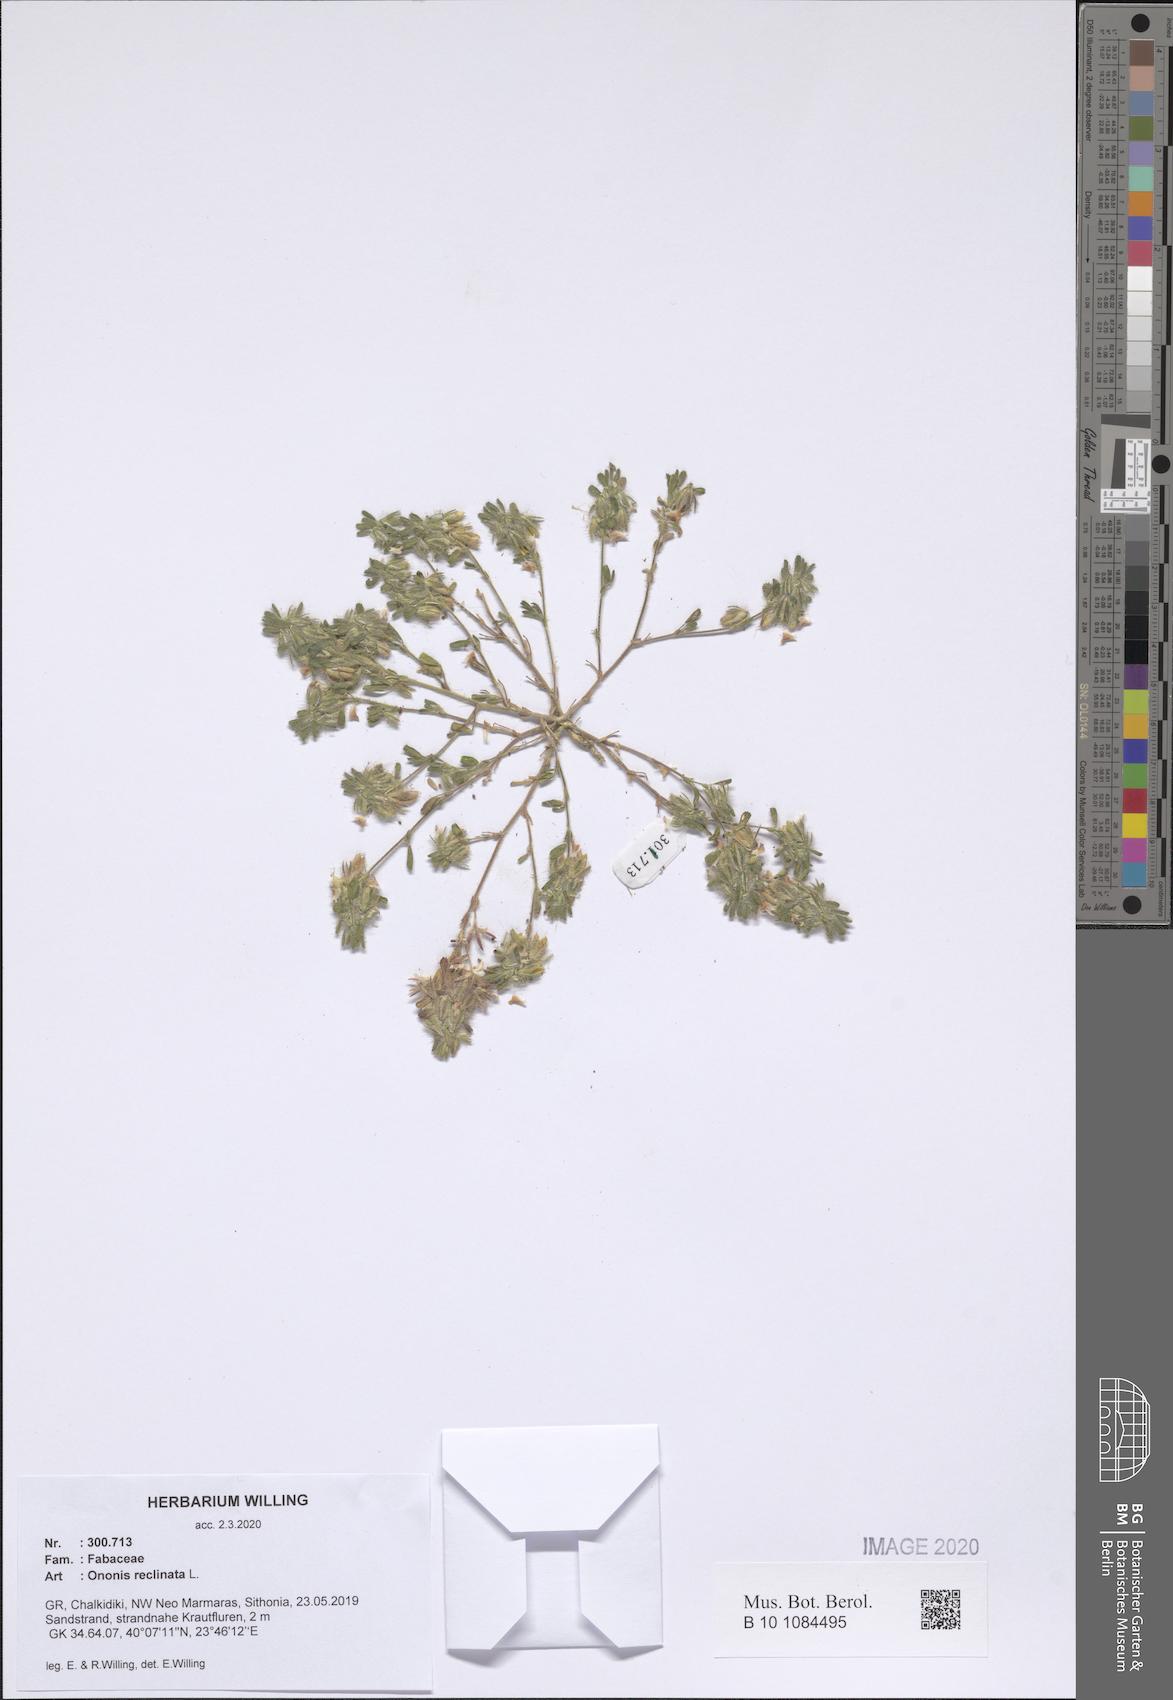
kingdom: Plantae
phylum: Tracheophyta
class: Magnoliopsida
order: Fabales
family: Fabaceae
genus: Ononis
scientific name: Ononis reclinata
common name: Small restharrow
